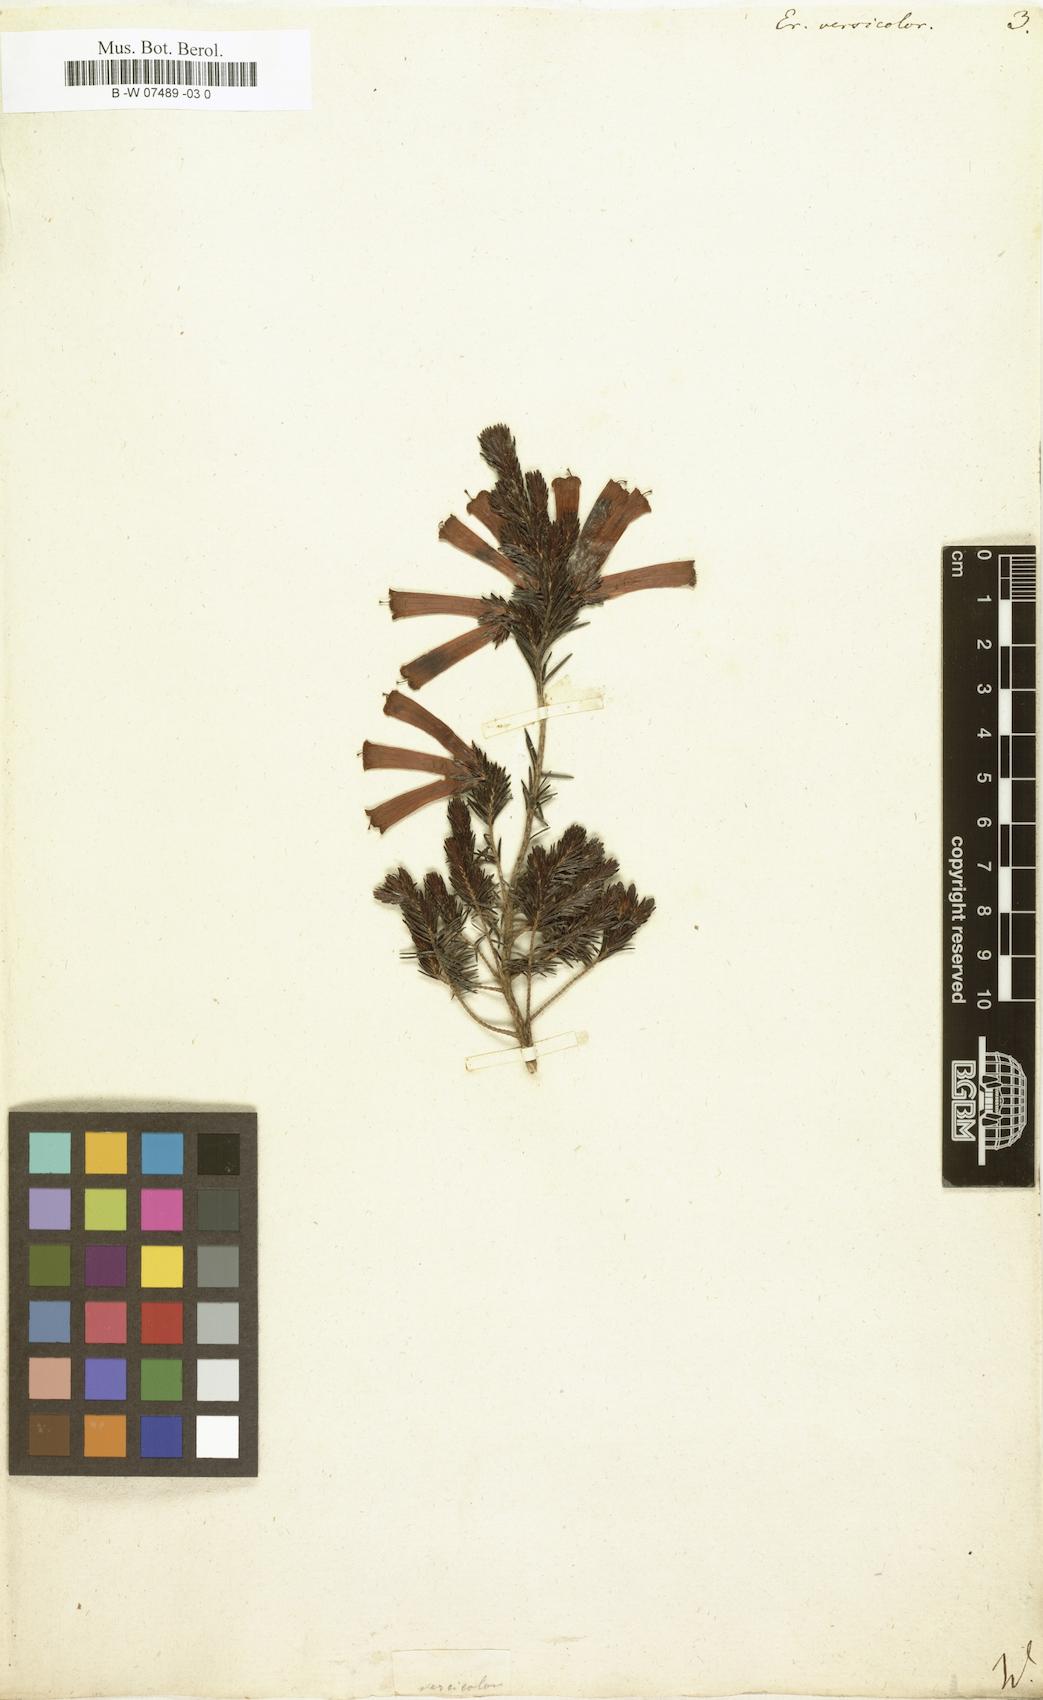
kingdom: Plantae
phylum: Tracheophyta
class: Magnoliopsida
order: Ericales
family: Ericaceae
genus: Erica
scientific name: Erica versicolor
